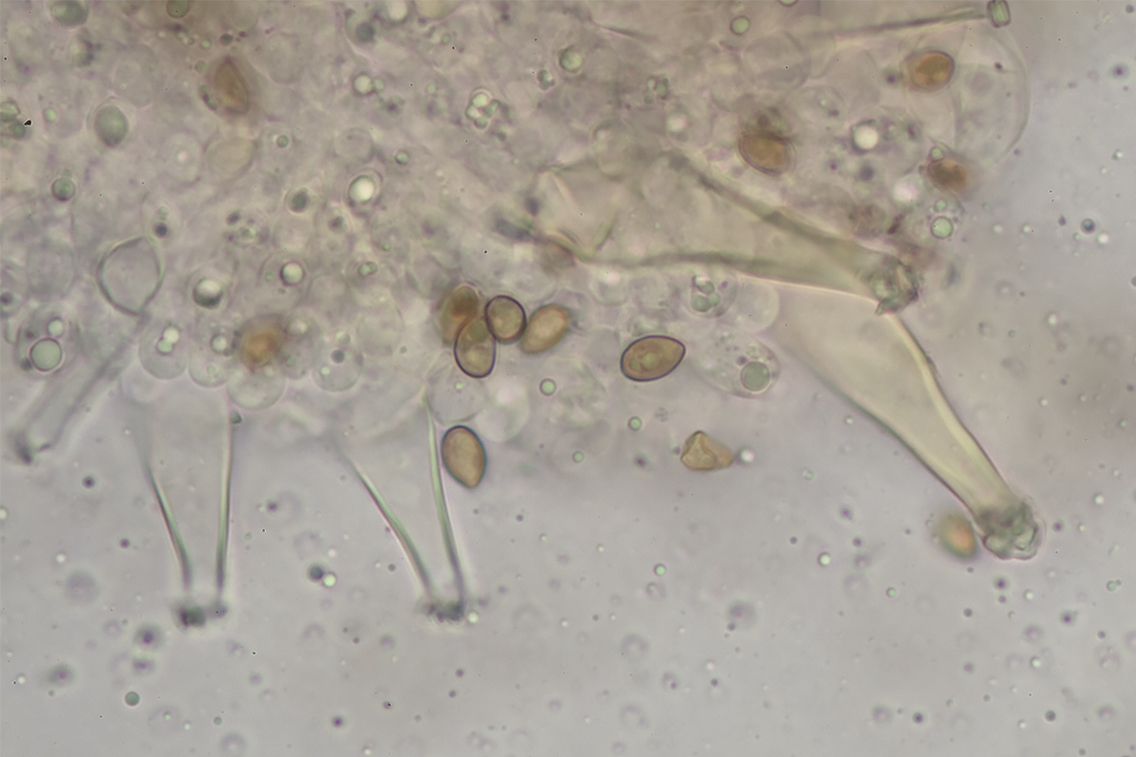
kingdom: Fungi
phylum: Basidiomycota
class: Agaricomycetes
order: Agaricales
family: Inocybaceae
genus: Inocybe
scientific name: Inocybe
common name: trævlhat
